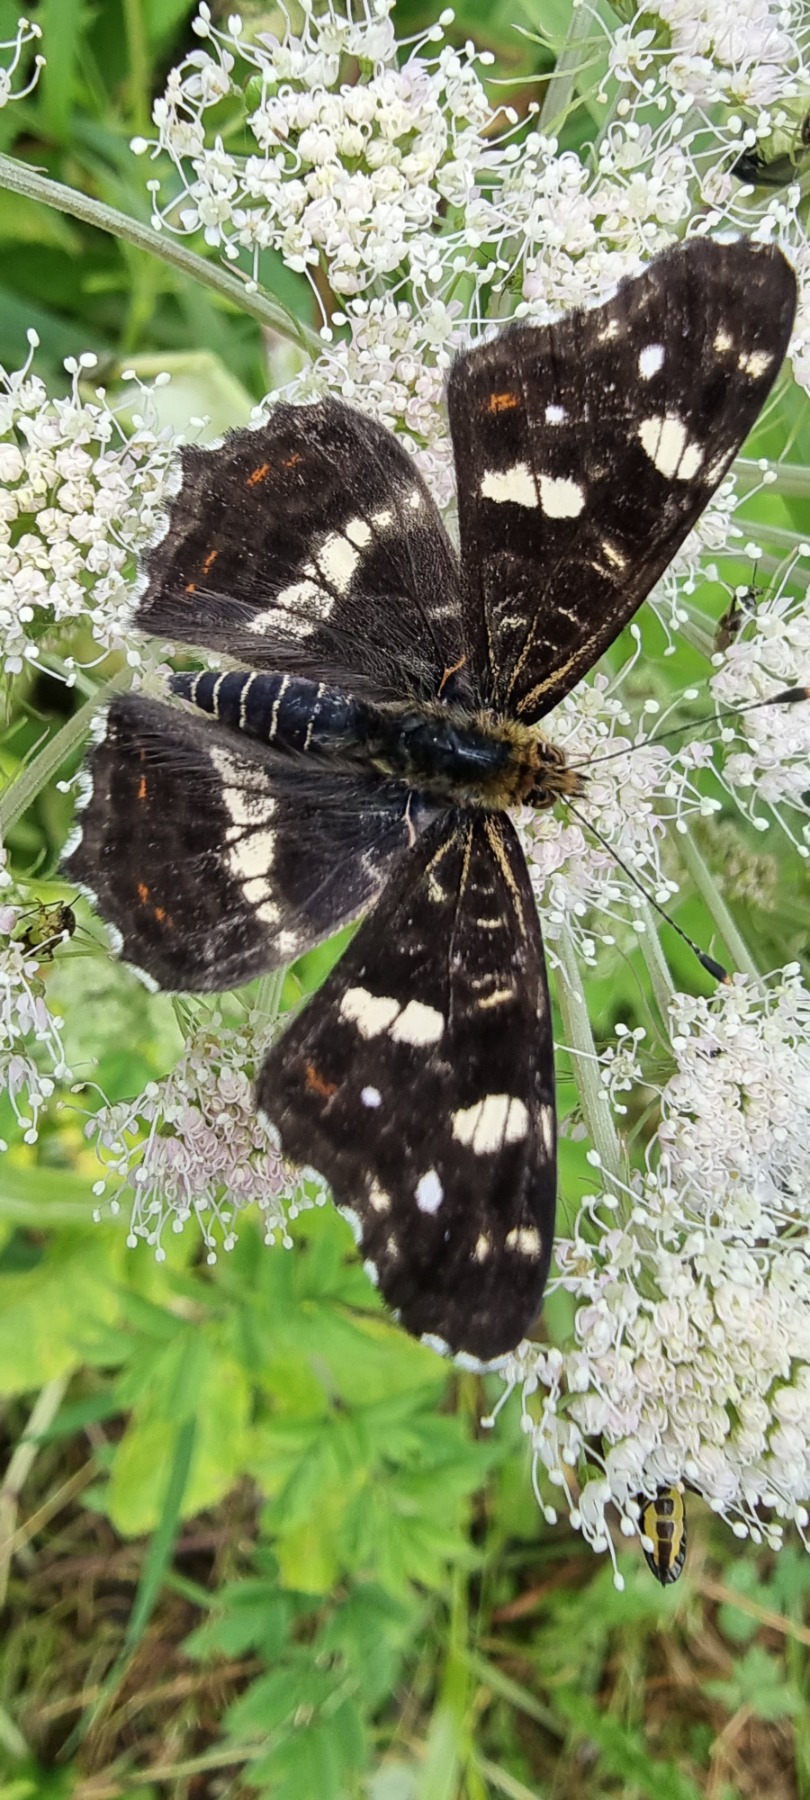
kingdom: Animalia
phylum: Arthropoda
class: Insecta
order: Lepidoptera
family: Nymphalidae
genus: Araschnia
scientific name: Araschnia levana
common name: Nældesommerfugl
